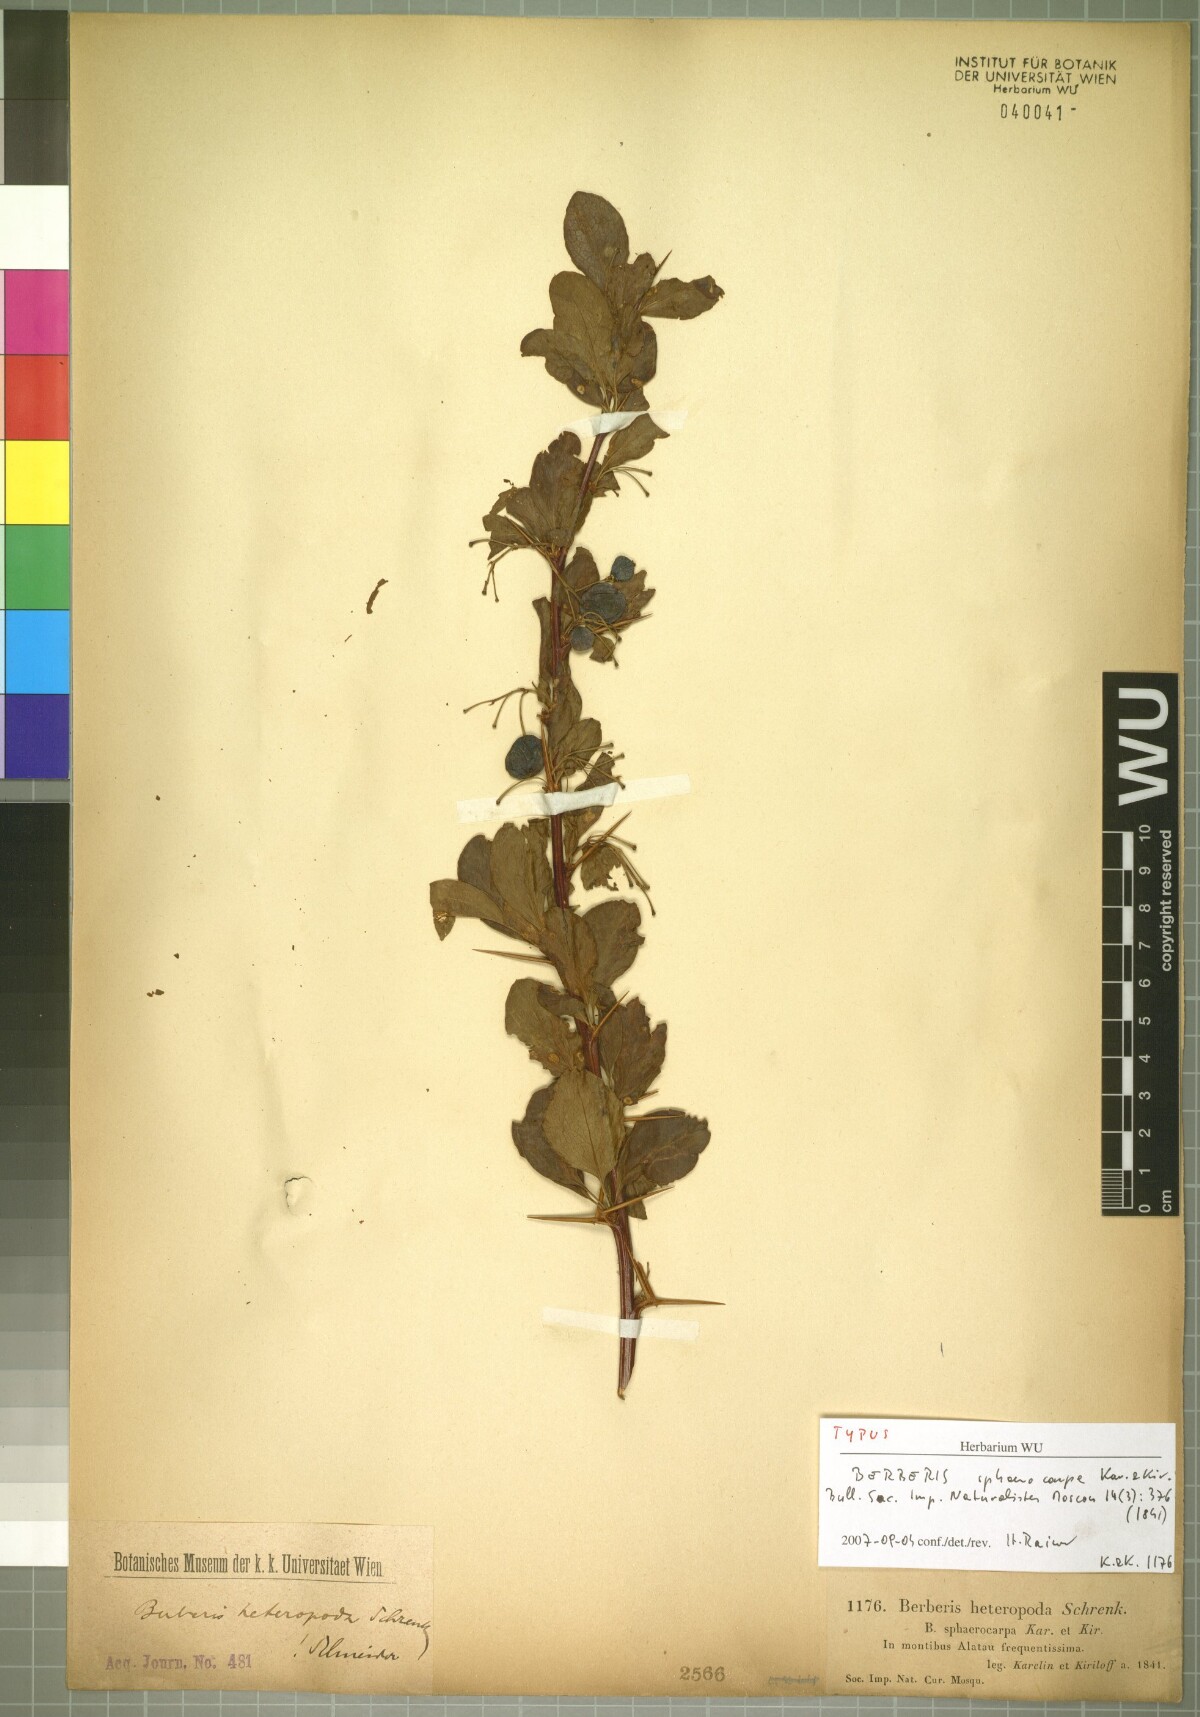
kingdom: Plantae
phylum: Tracheophyta
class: Magnoliopsida
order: Ranunculales
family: Berberidaceae
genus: Berberis
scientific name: Berberis heteropoda
